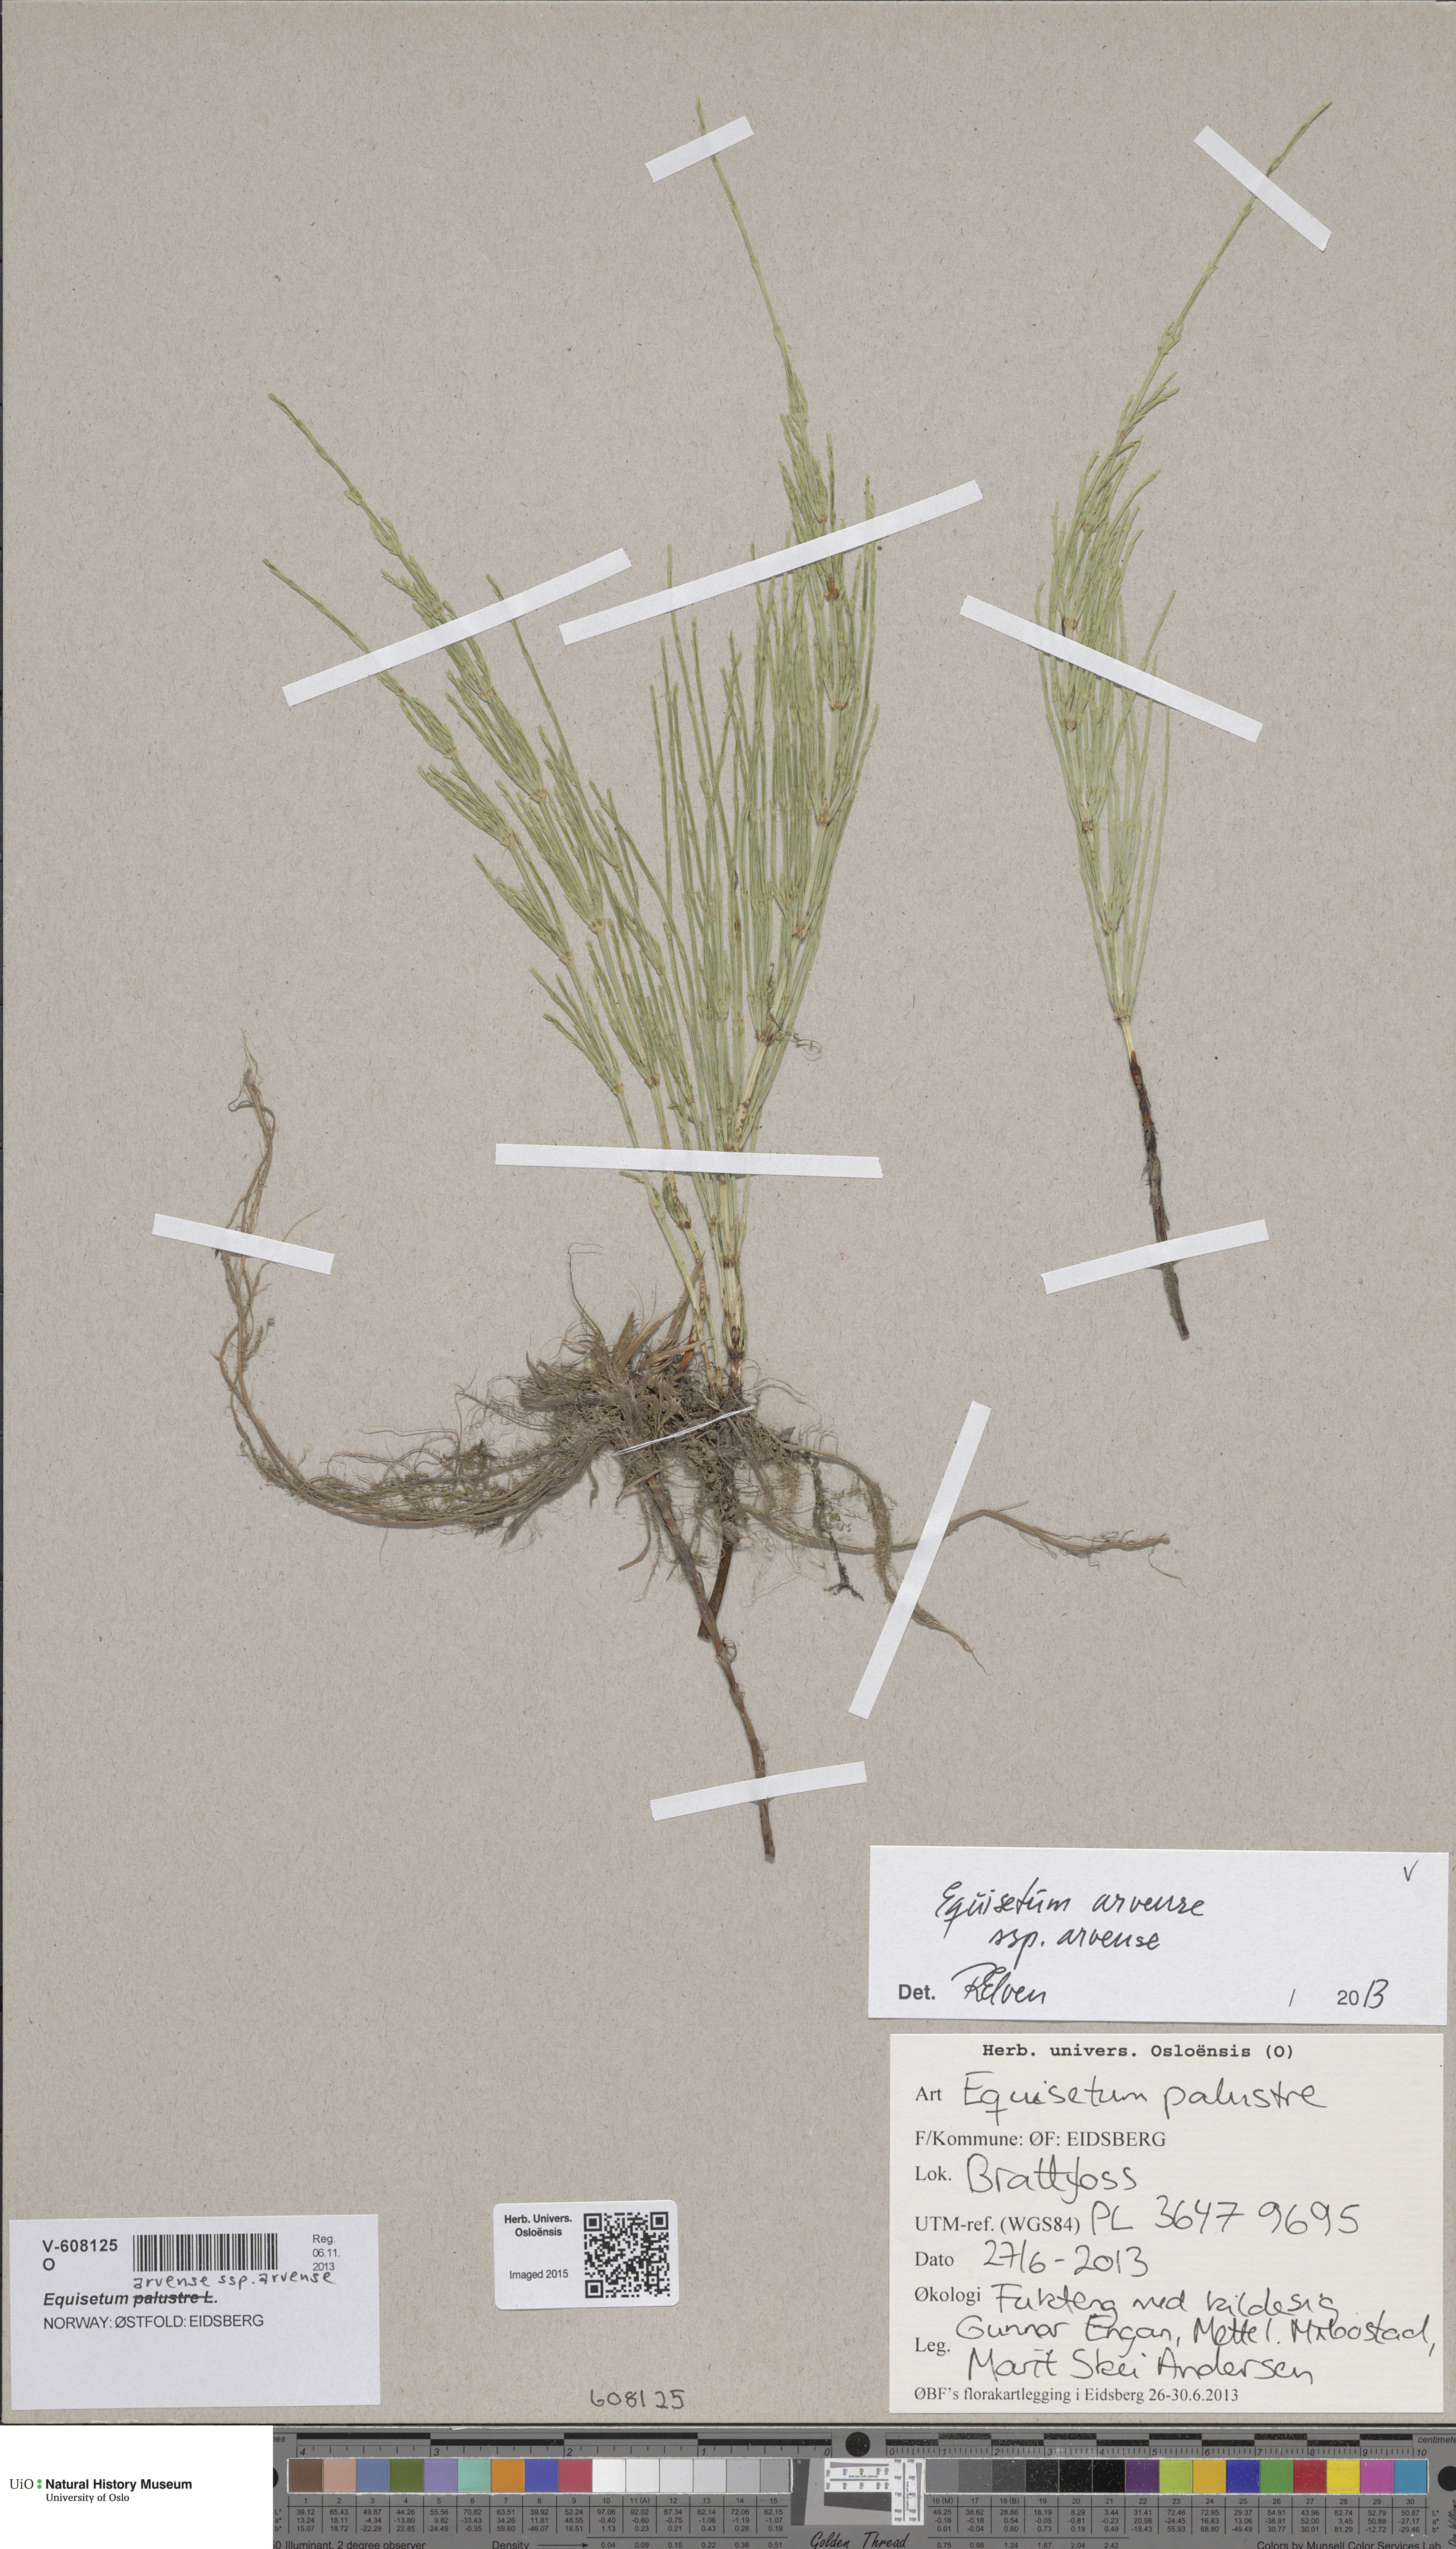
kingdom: Plantae
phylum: Tracheophyta
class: Polypodiopsida
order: Equisetales
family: Equisetaceae
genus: Equisetum
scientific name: Equisetum arvense
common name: Field horsetail
